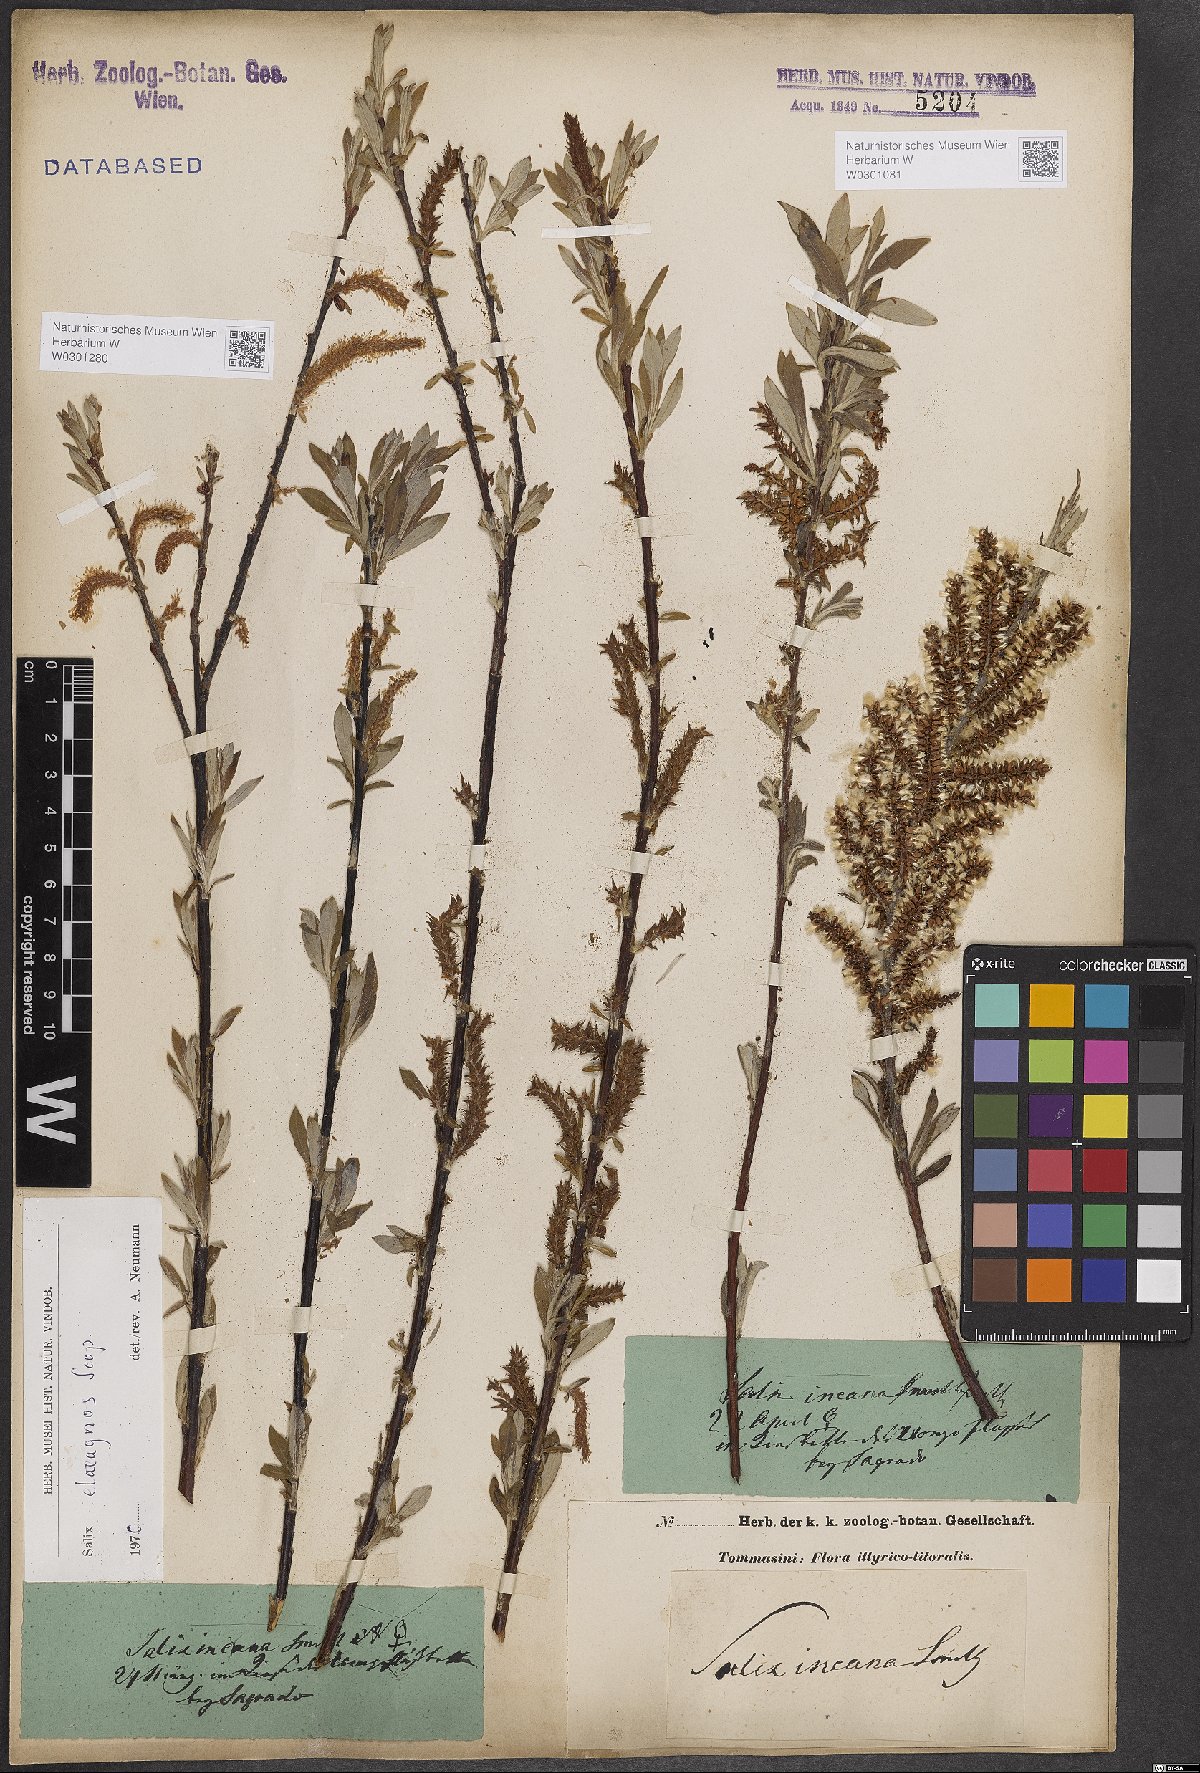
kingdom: Plantae
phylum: Tracheophyta
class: Magnoliopsida
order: Malpighiales
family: Salicaceae
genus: Salix
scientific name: Salix eleagnos
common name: Elaeagnus willow
